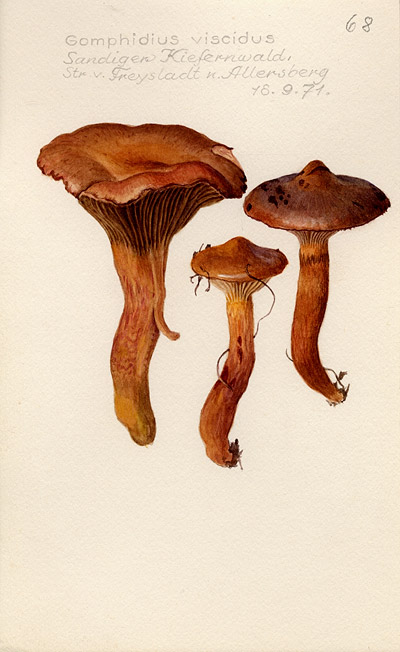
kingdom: Fungi
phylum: Basidiomycota
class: Agaricomycetes
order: Boletales
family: Gomphidiaceae
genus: Chroogomphus
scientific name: Chroogomphus rutilus
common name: Copper spike
